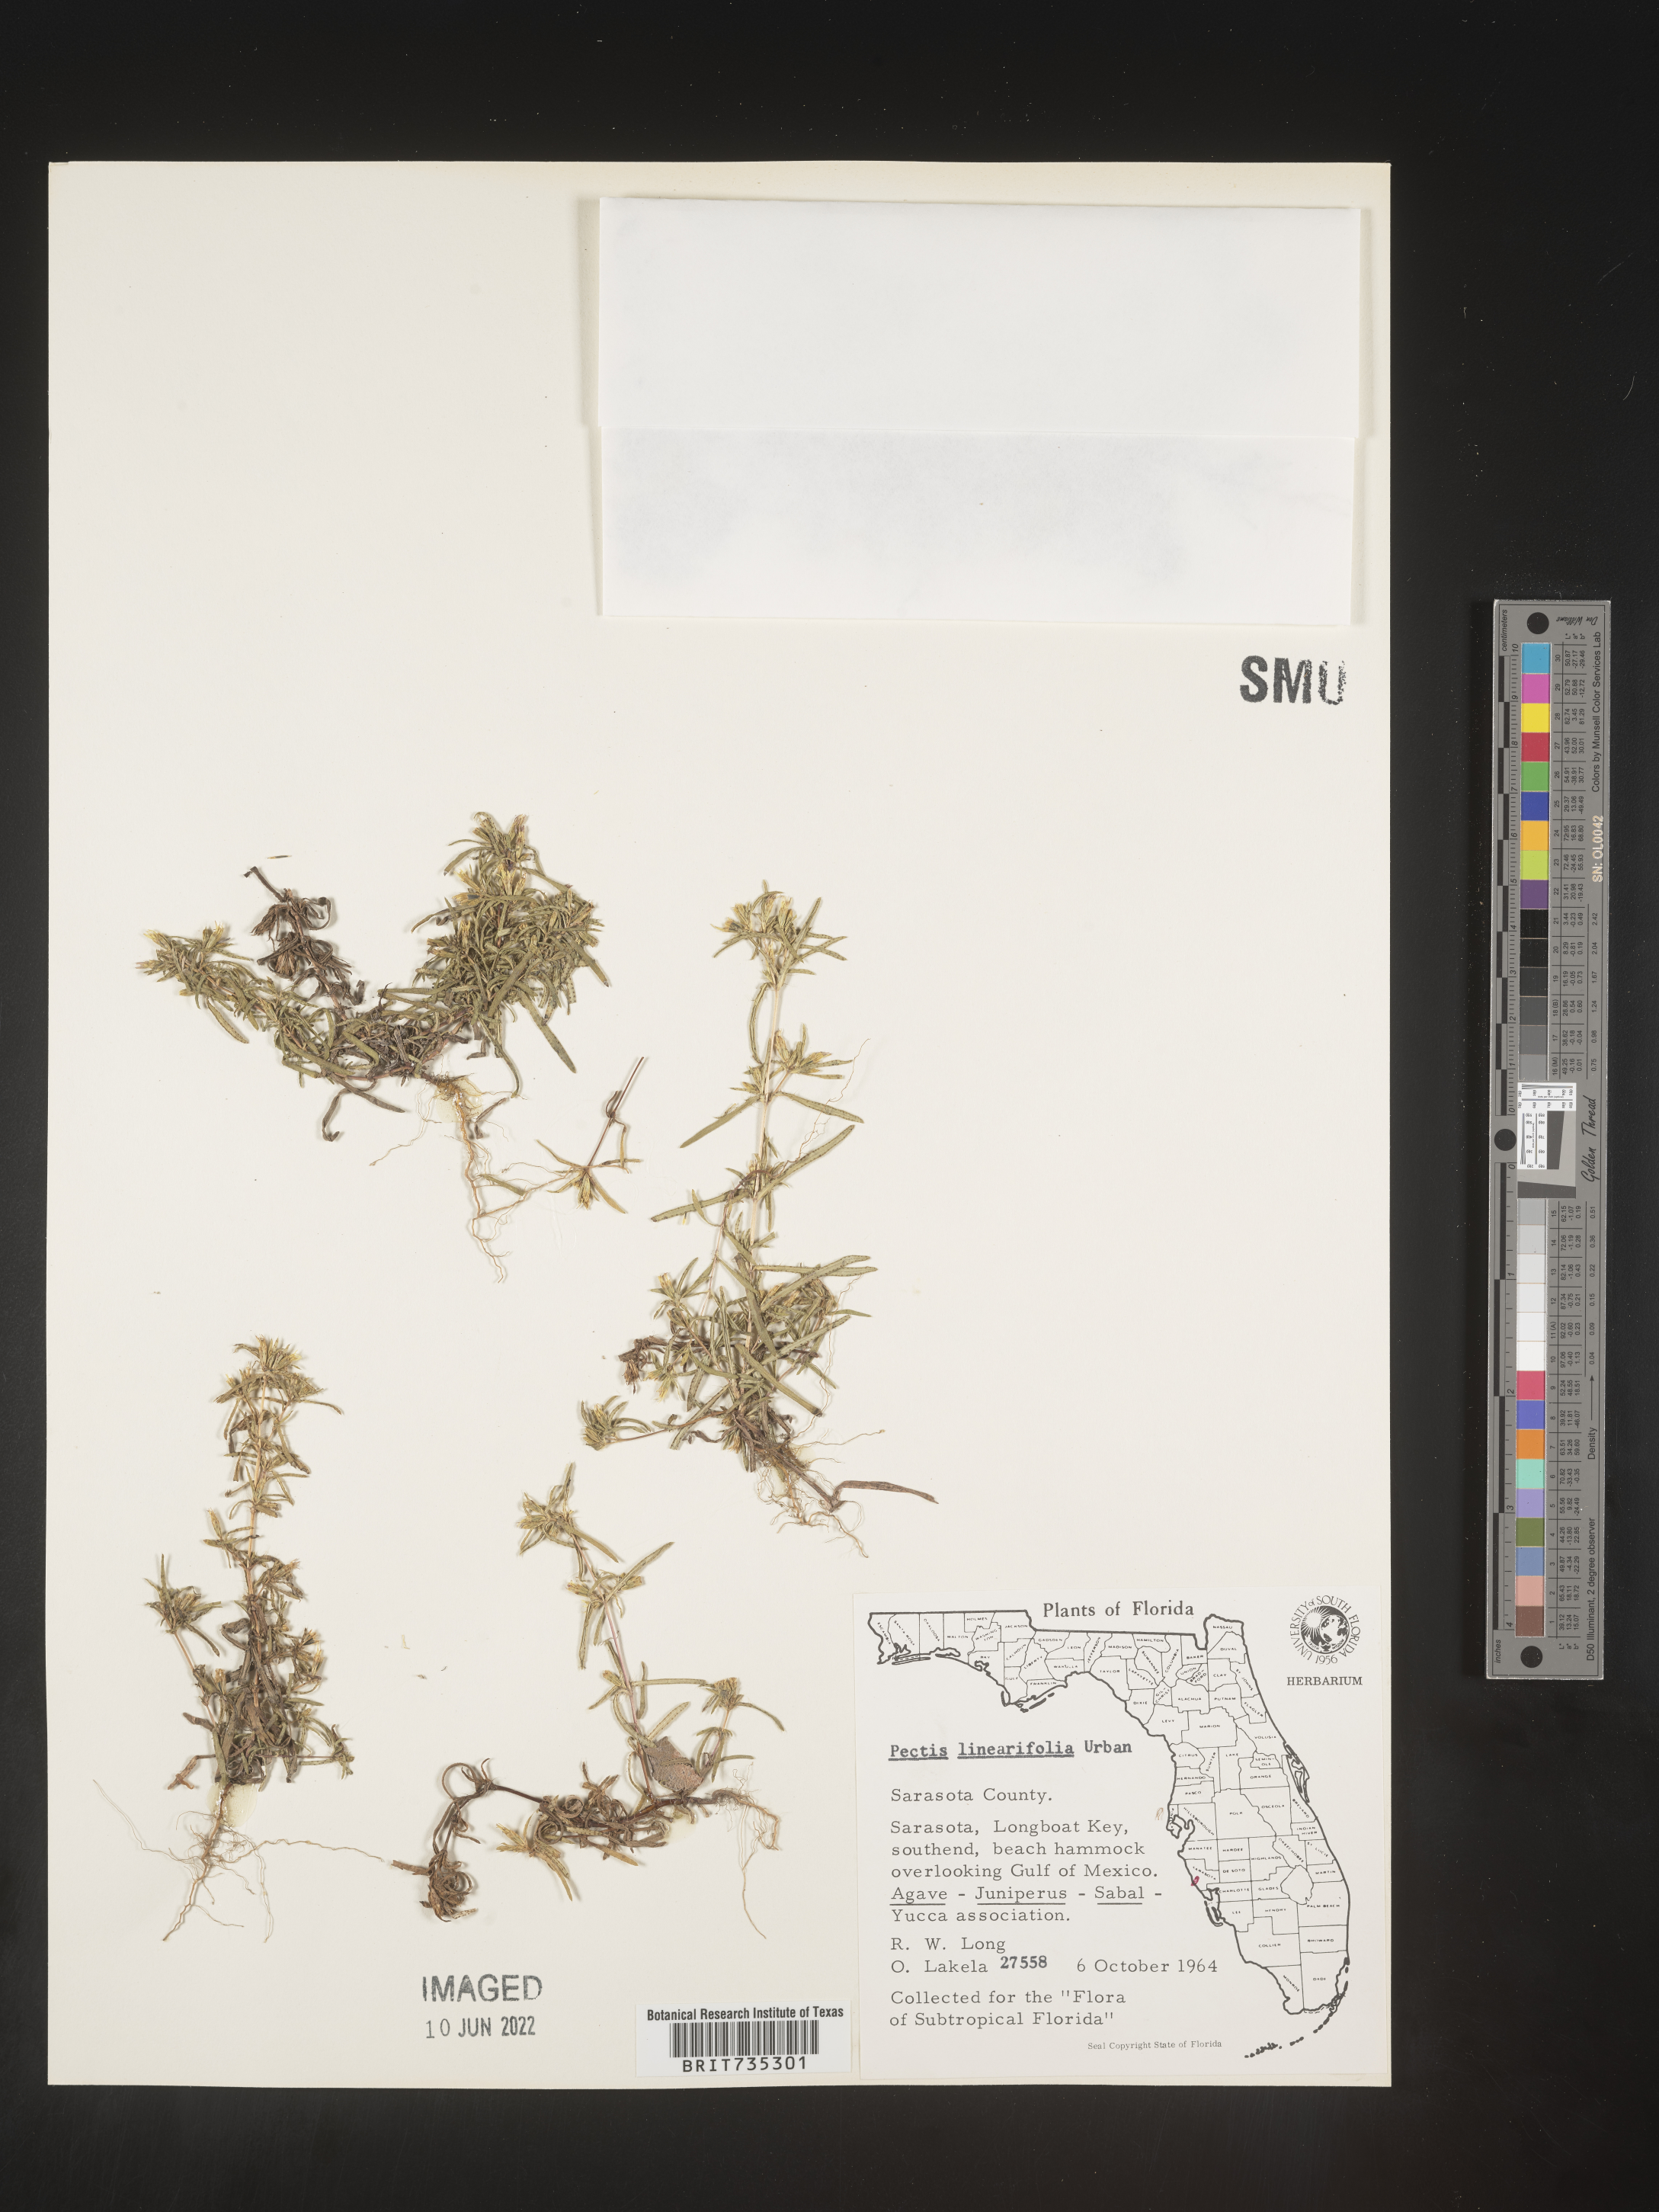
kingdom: Plantae
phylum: Tracheophyta
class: Magnoliopsida
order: Asterales
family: Asteraceae
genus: Pectis
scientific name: Pectis linearifolia
